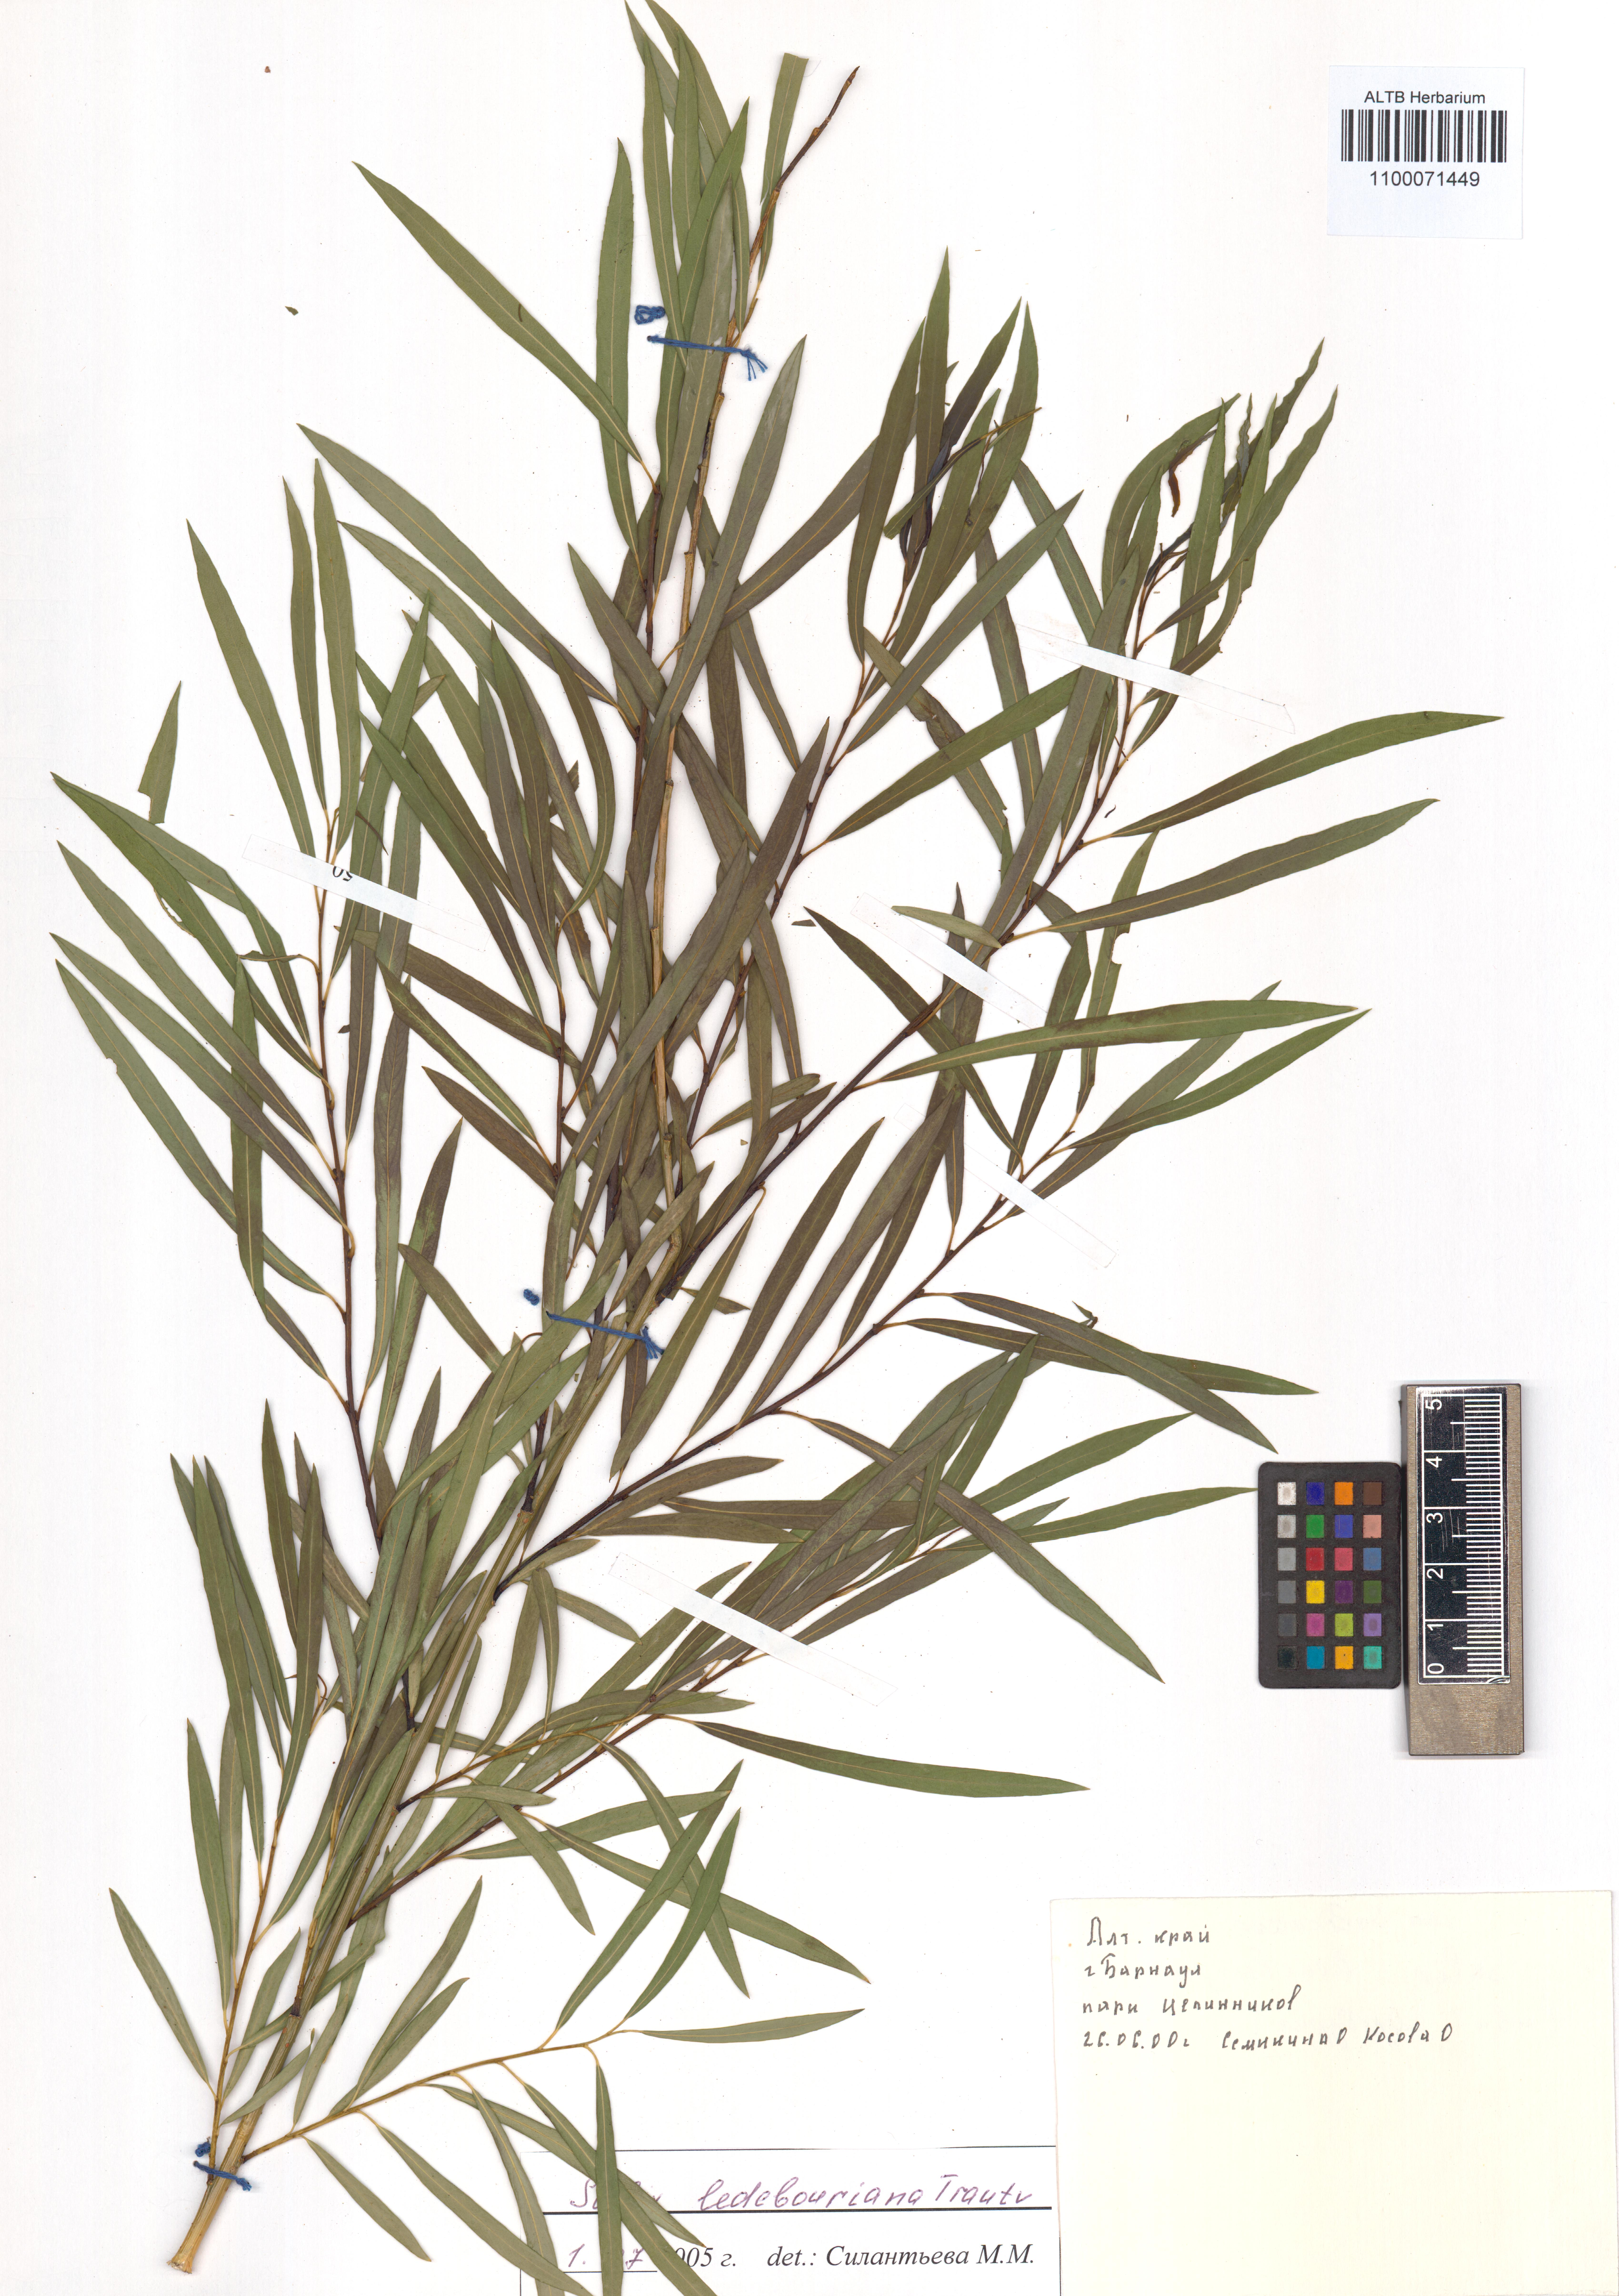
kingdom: Plantae
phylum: Tracheophyta
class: Magnoliopsida
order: Malpighiales
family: Salicaceae
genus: Salix
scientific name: Salix ledebouriana
